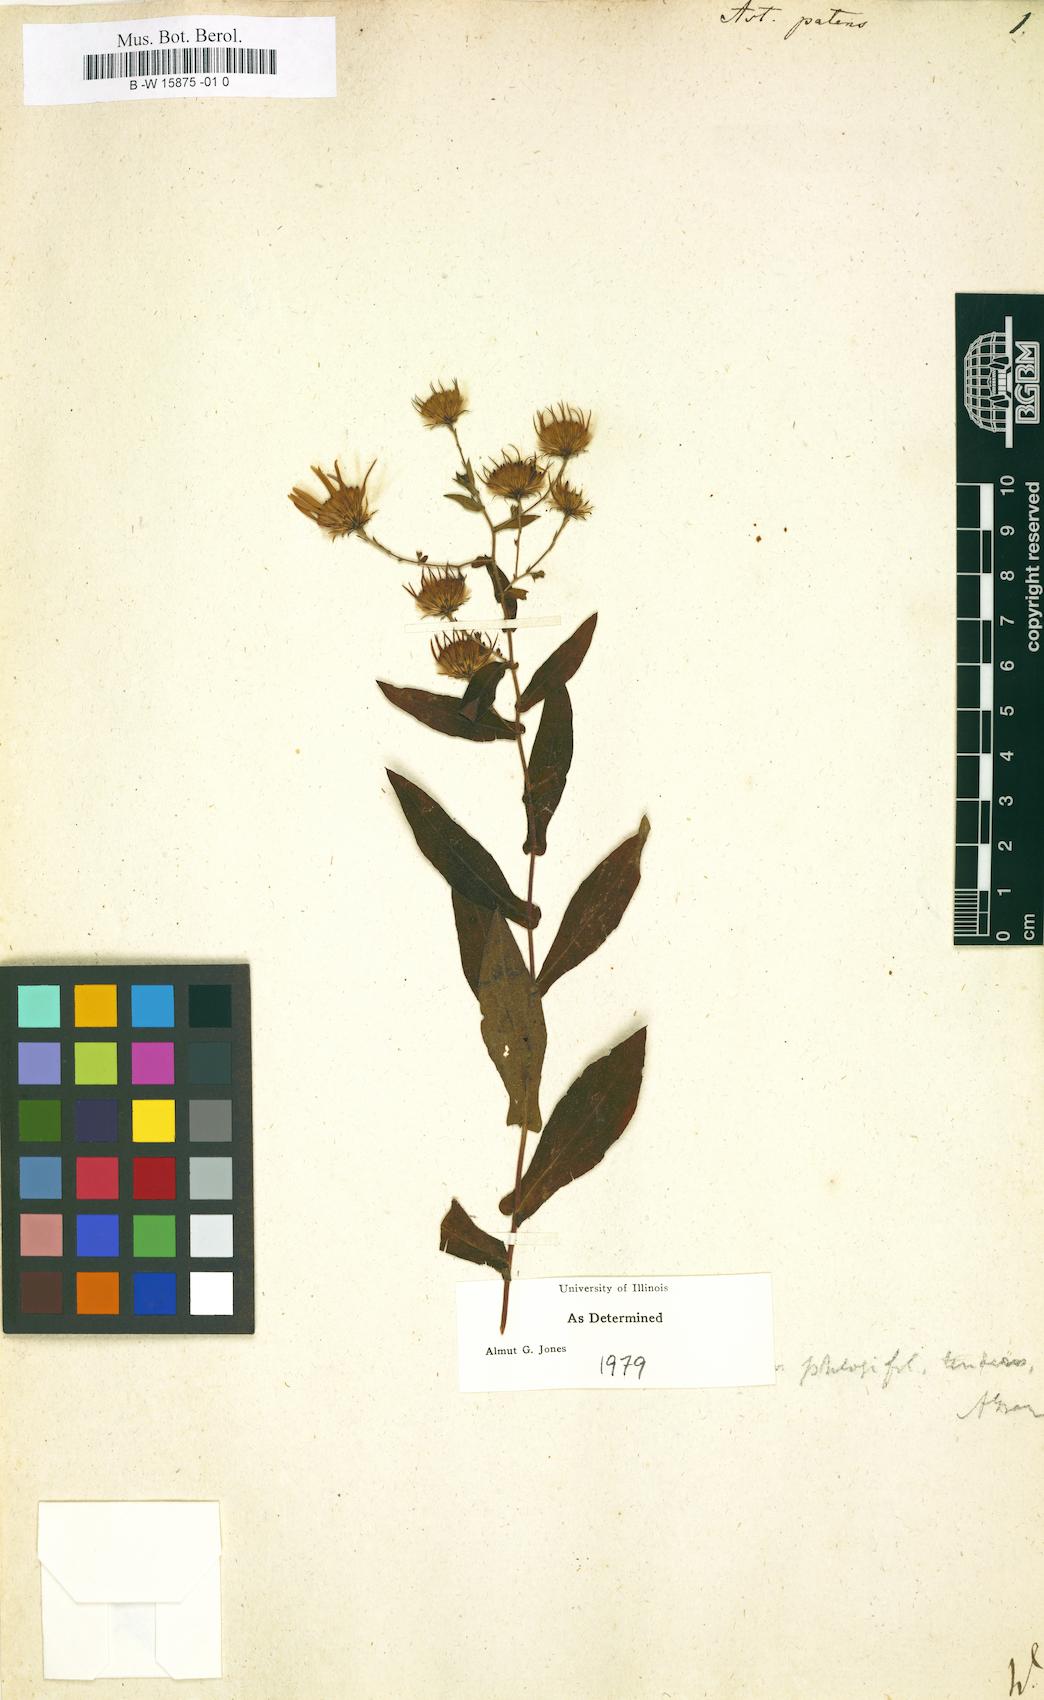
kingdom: Plantae
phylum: Tracheophyta
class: Magnoliopsida
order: Asterales
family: Asteraceae
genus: Aster
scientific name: Aster patens
